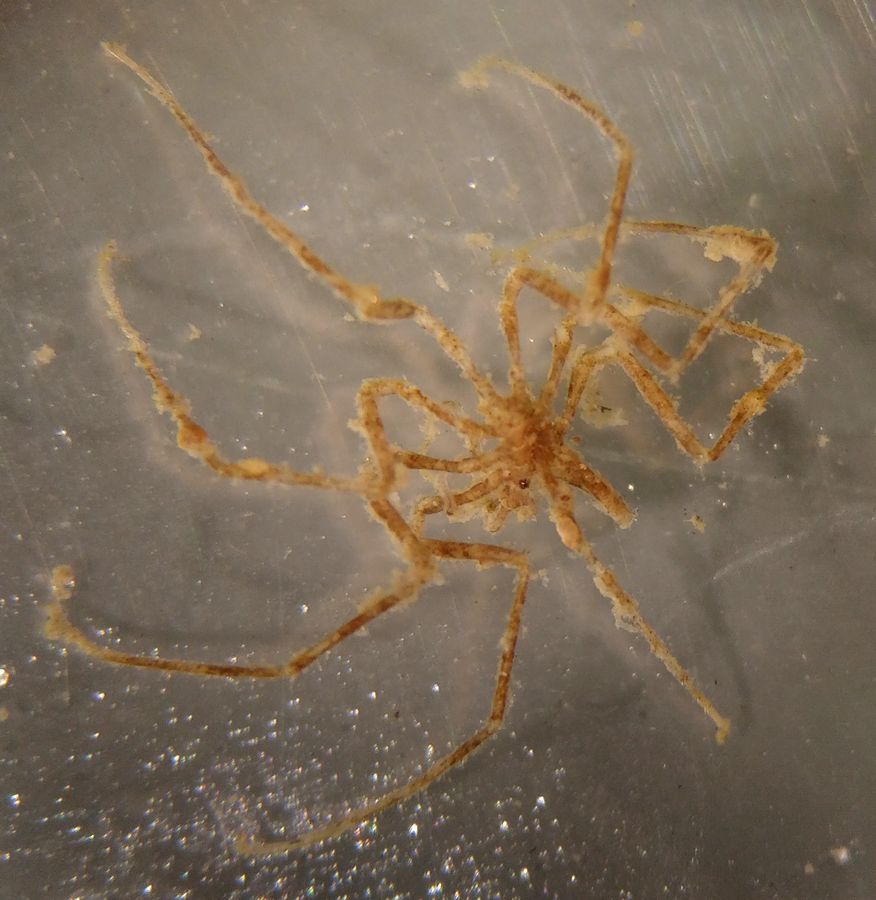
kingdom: Animalia
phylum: Arthropoda
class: Pycnogonida
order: Pantopoda
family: Nymphonidae
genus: Nymphon
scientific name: Nymphon brevirostre
